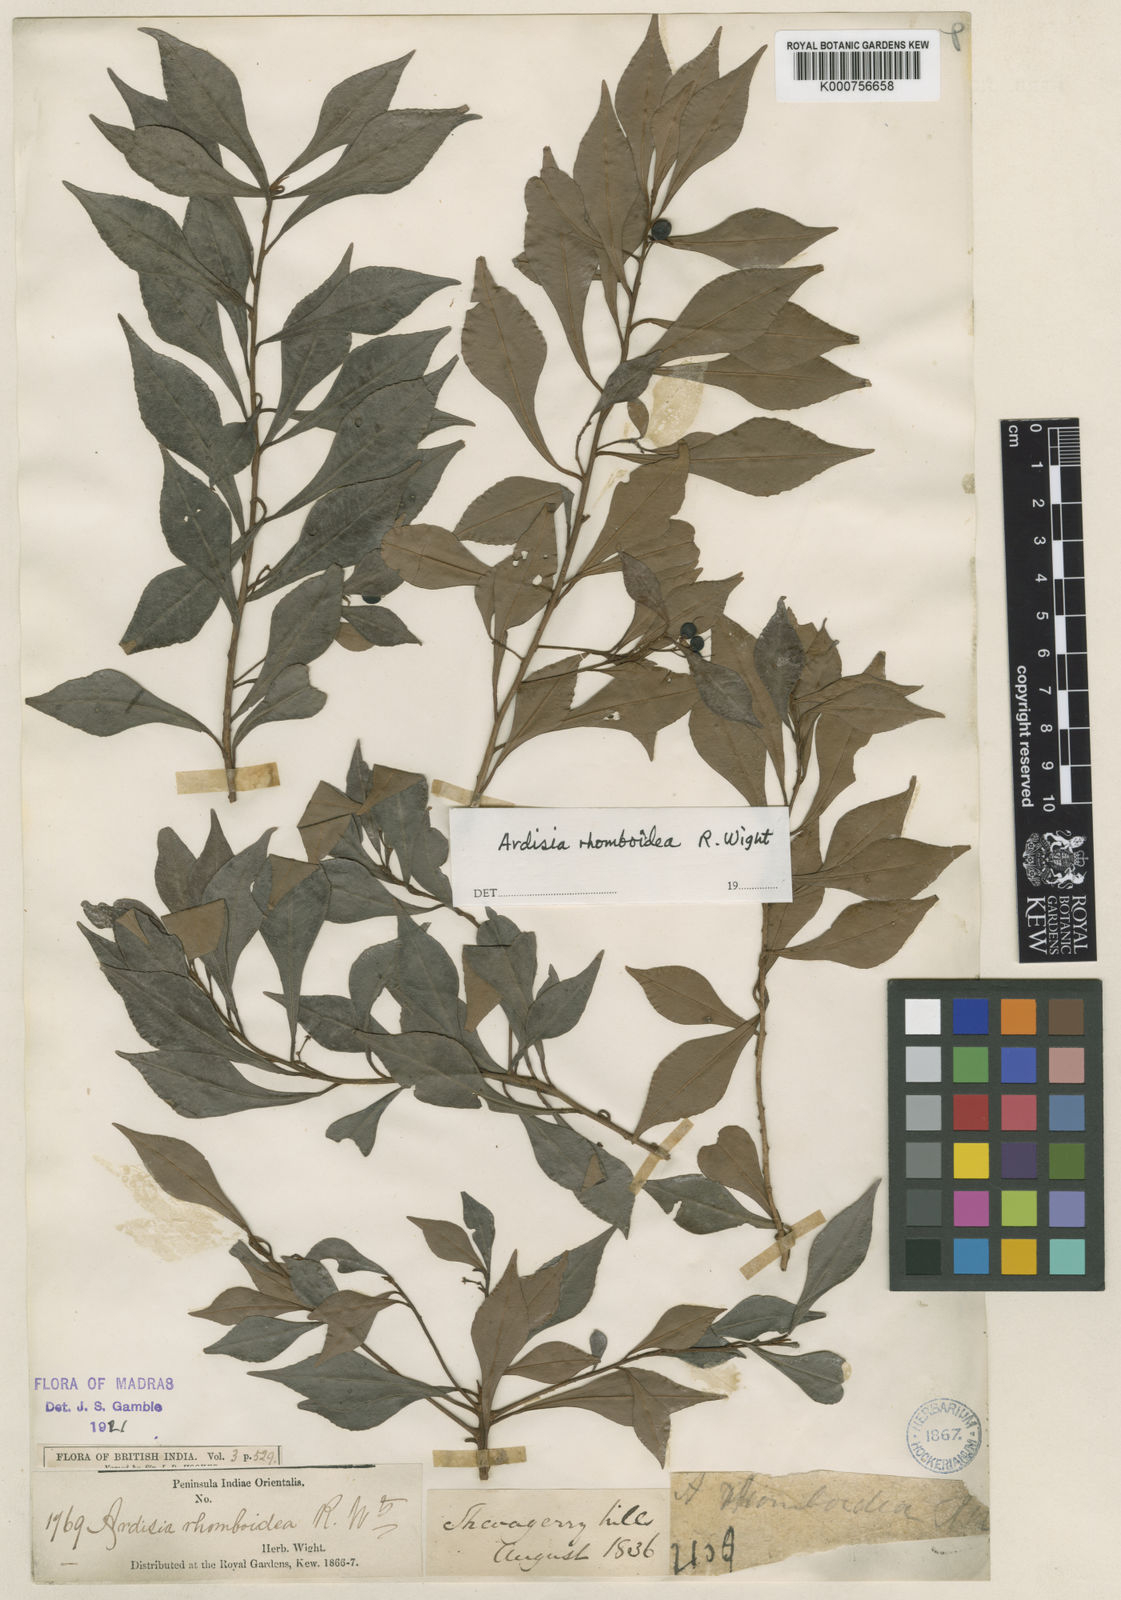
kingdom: Plantae
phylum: Tracheophyta
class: Magnoliopsida
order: Ericales
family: Primulaceae
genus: Ardisia
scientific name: Ardisia pauciflora
